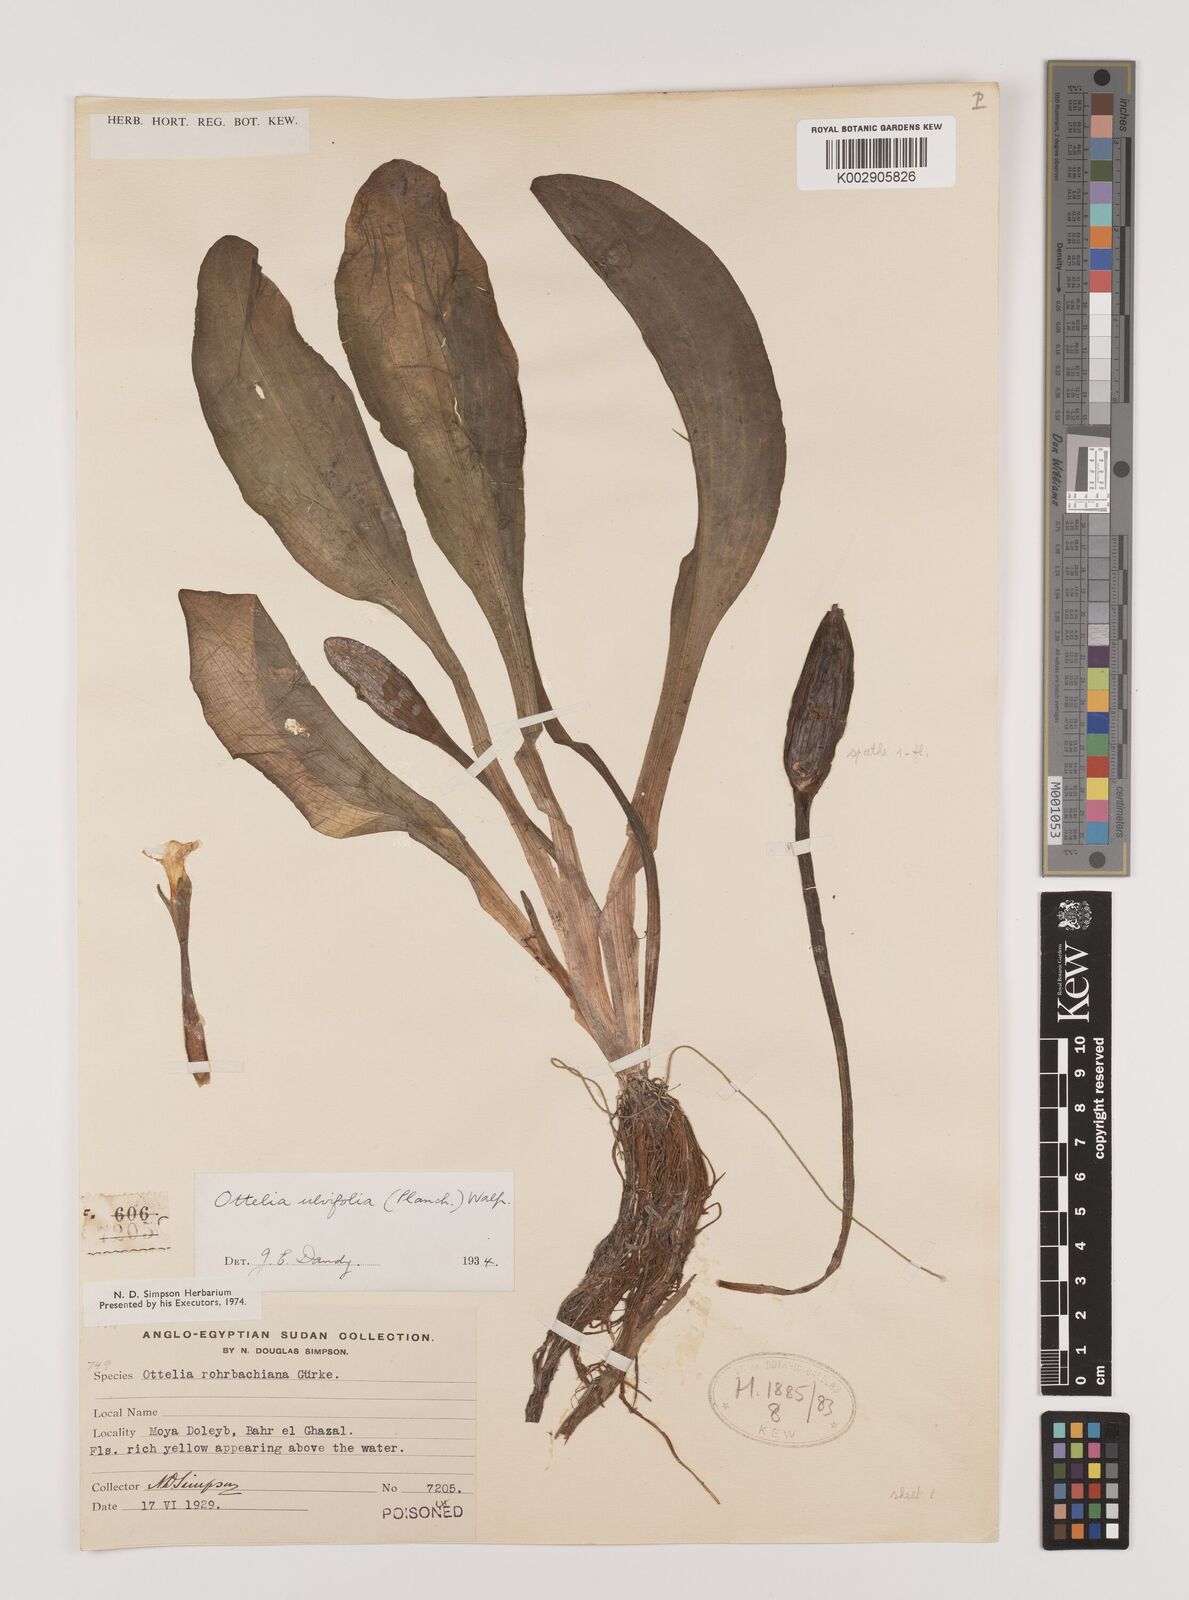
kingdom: Plantae
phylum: Tracheophyta
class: Liliopsida
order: Alismatales
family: Hydrocharitaceae
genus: Ottelia
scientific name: Ottelia ulvifolia
